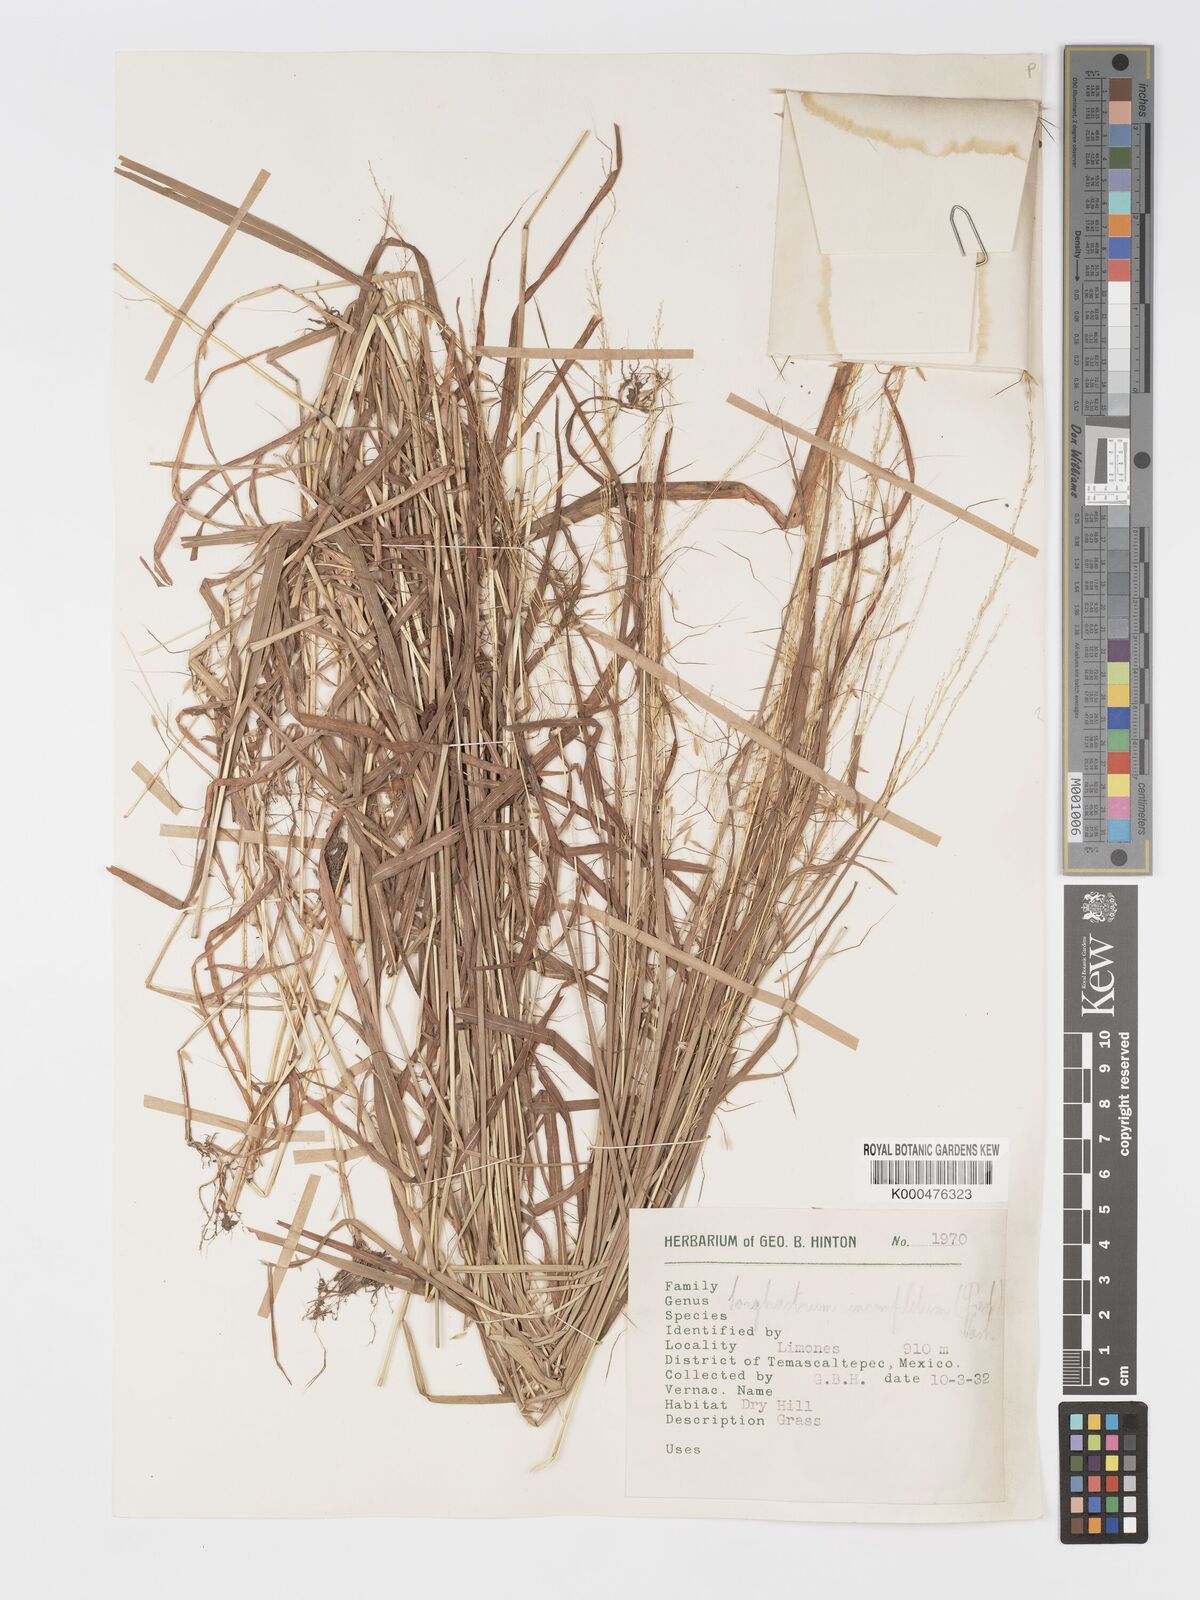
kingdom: Plantae
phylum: Tracheophyta
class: Liliopsida
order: Poales
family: Poaceae
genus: Sorghastrum
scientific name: Sorghastrum incompletum
